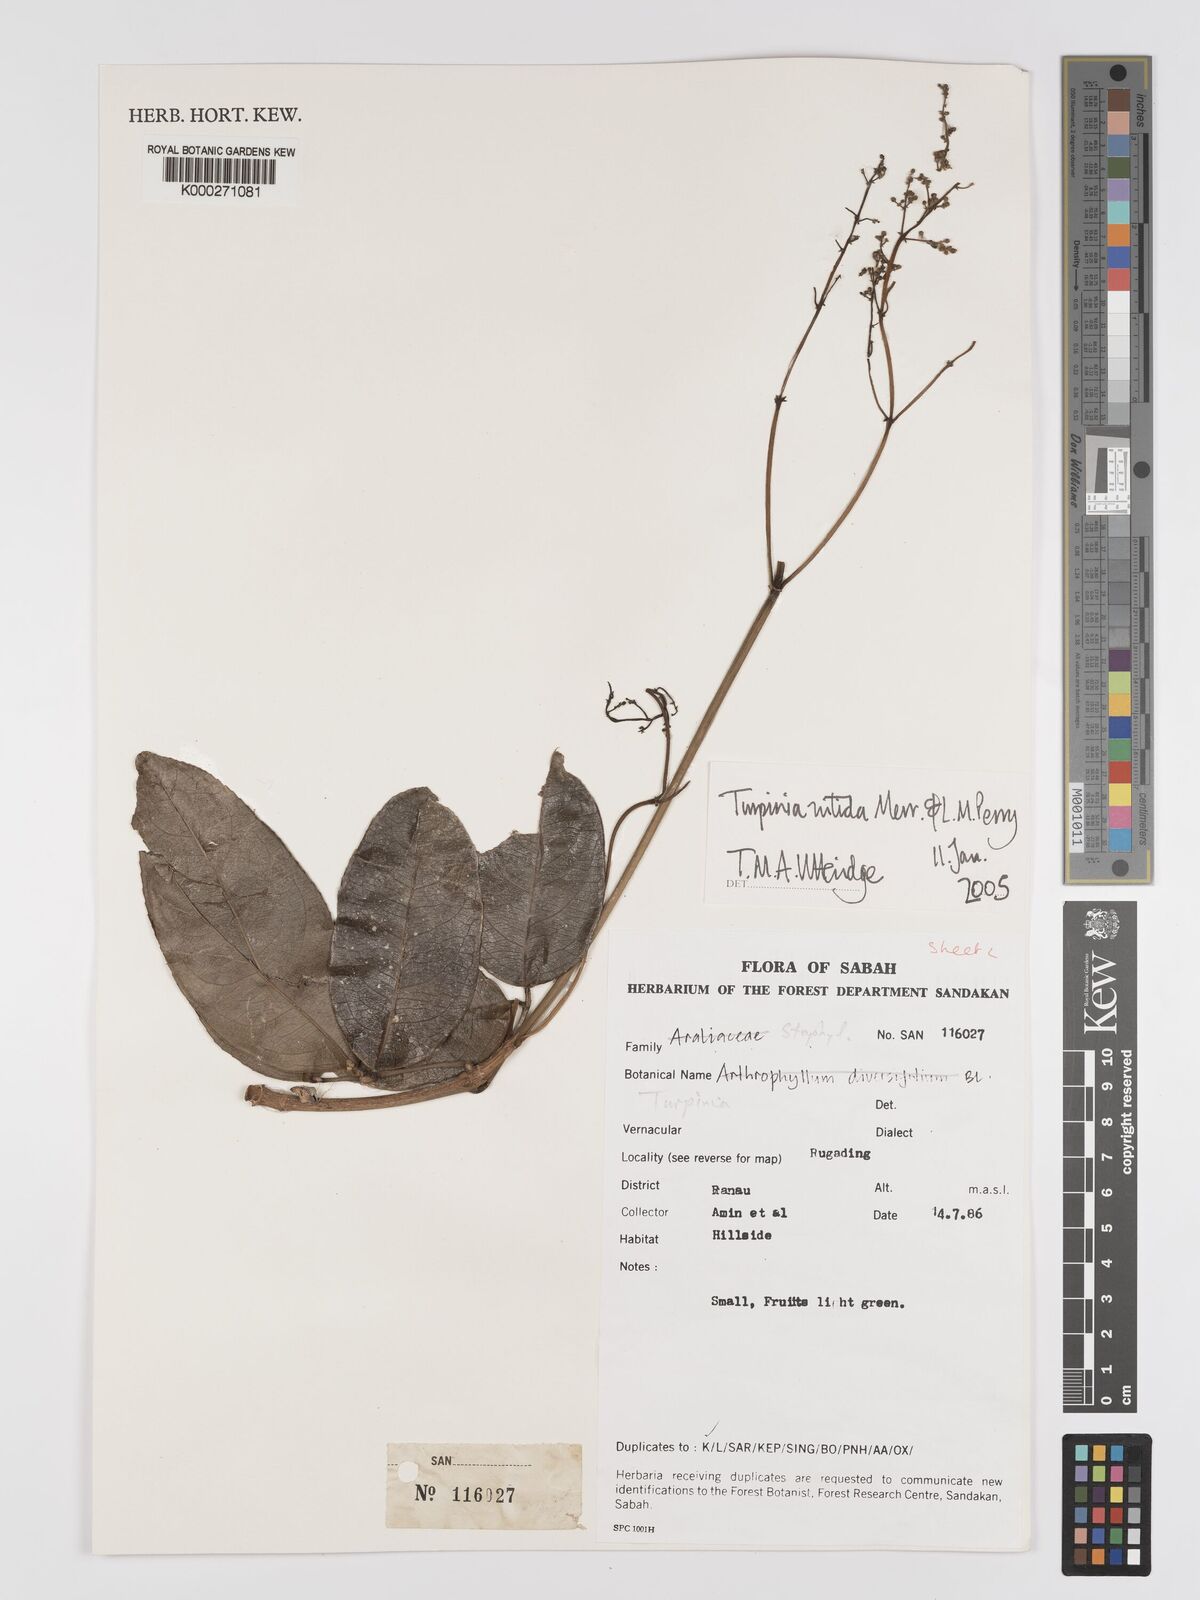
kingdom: Plantae
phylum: Tracheophyta
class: Magnoliopsida
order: Crossosomatales
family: Staphyleaceae
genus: Dalrympelea
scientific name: Dalrympelea nitida
